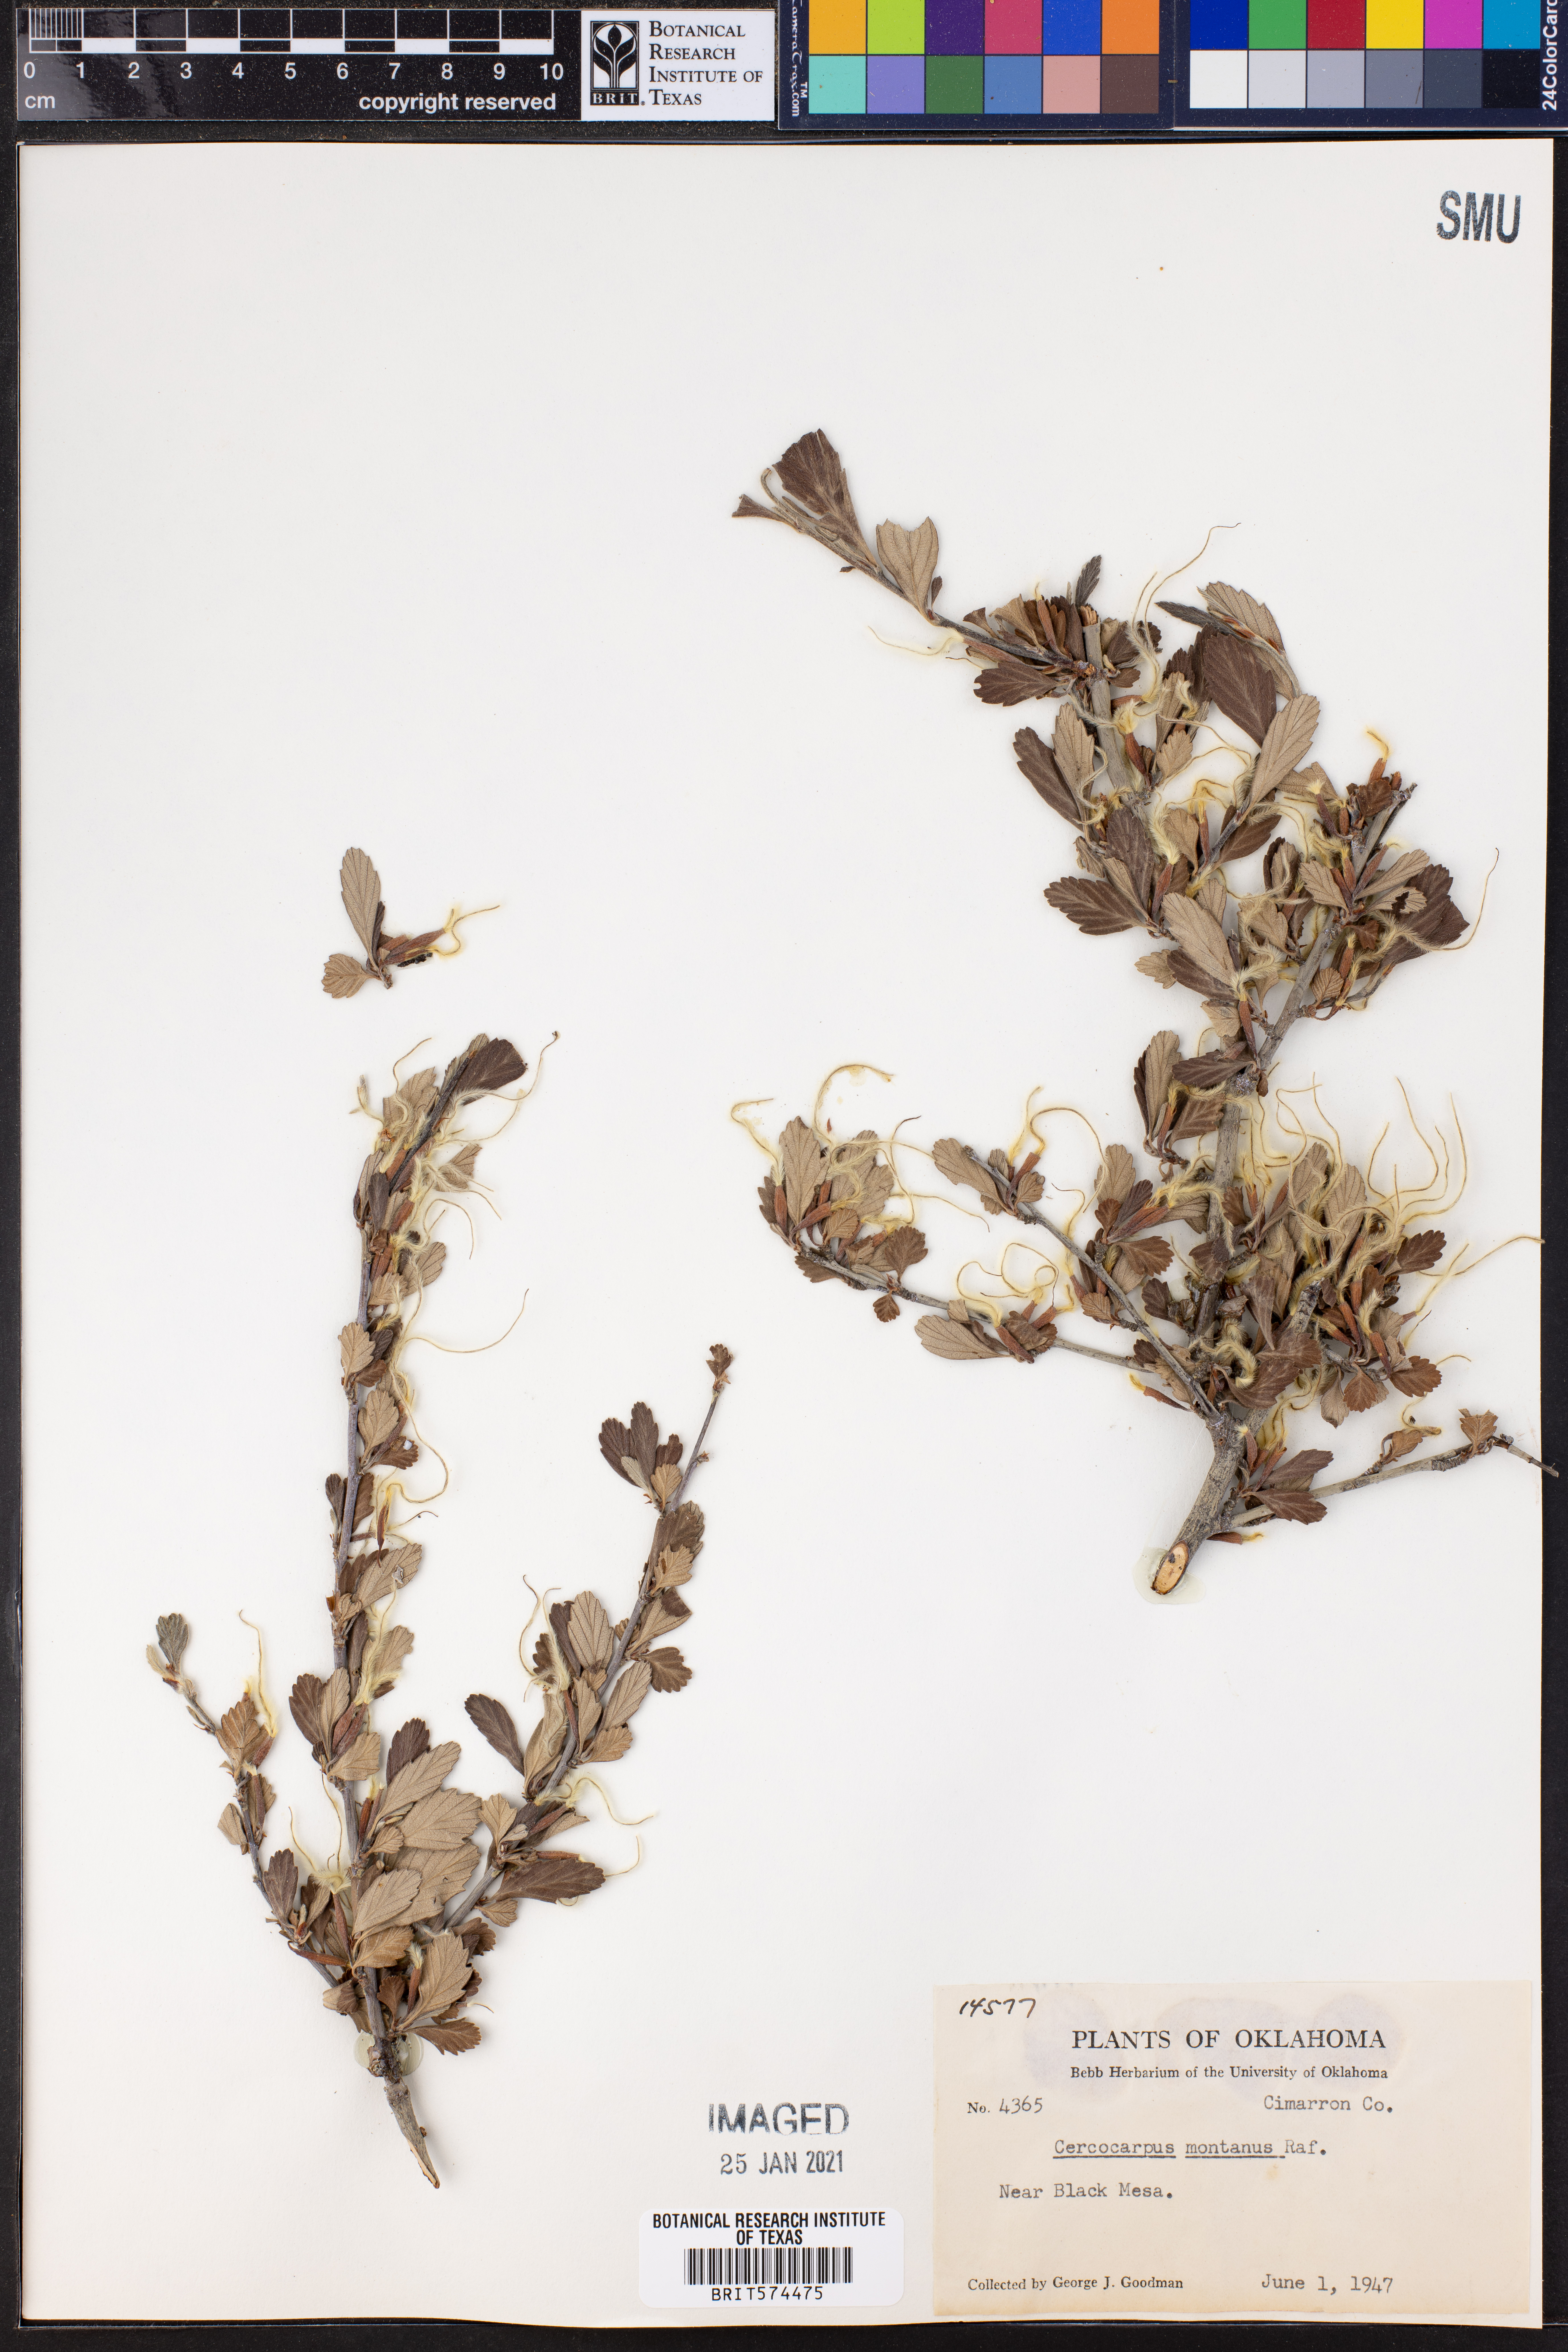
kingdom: Plantae
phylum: Tracheophyta
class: Magnoliopsida
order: Rosales
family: Rosaceae
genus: Cercocarpus
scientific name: Cercocarpus montanus
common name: Alder-leaf cercocarpus
